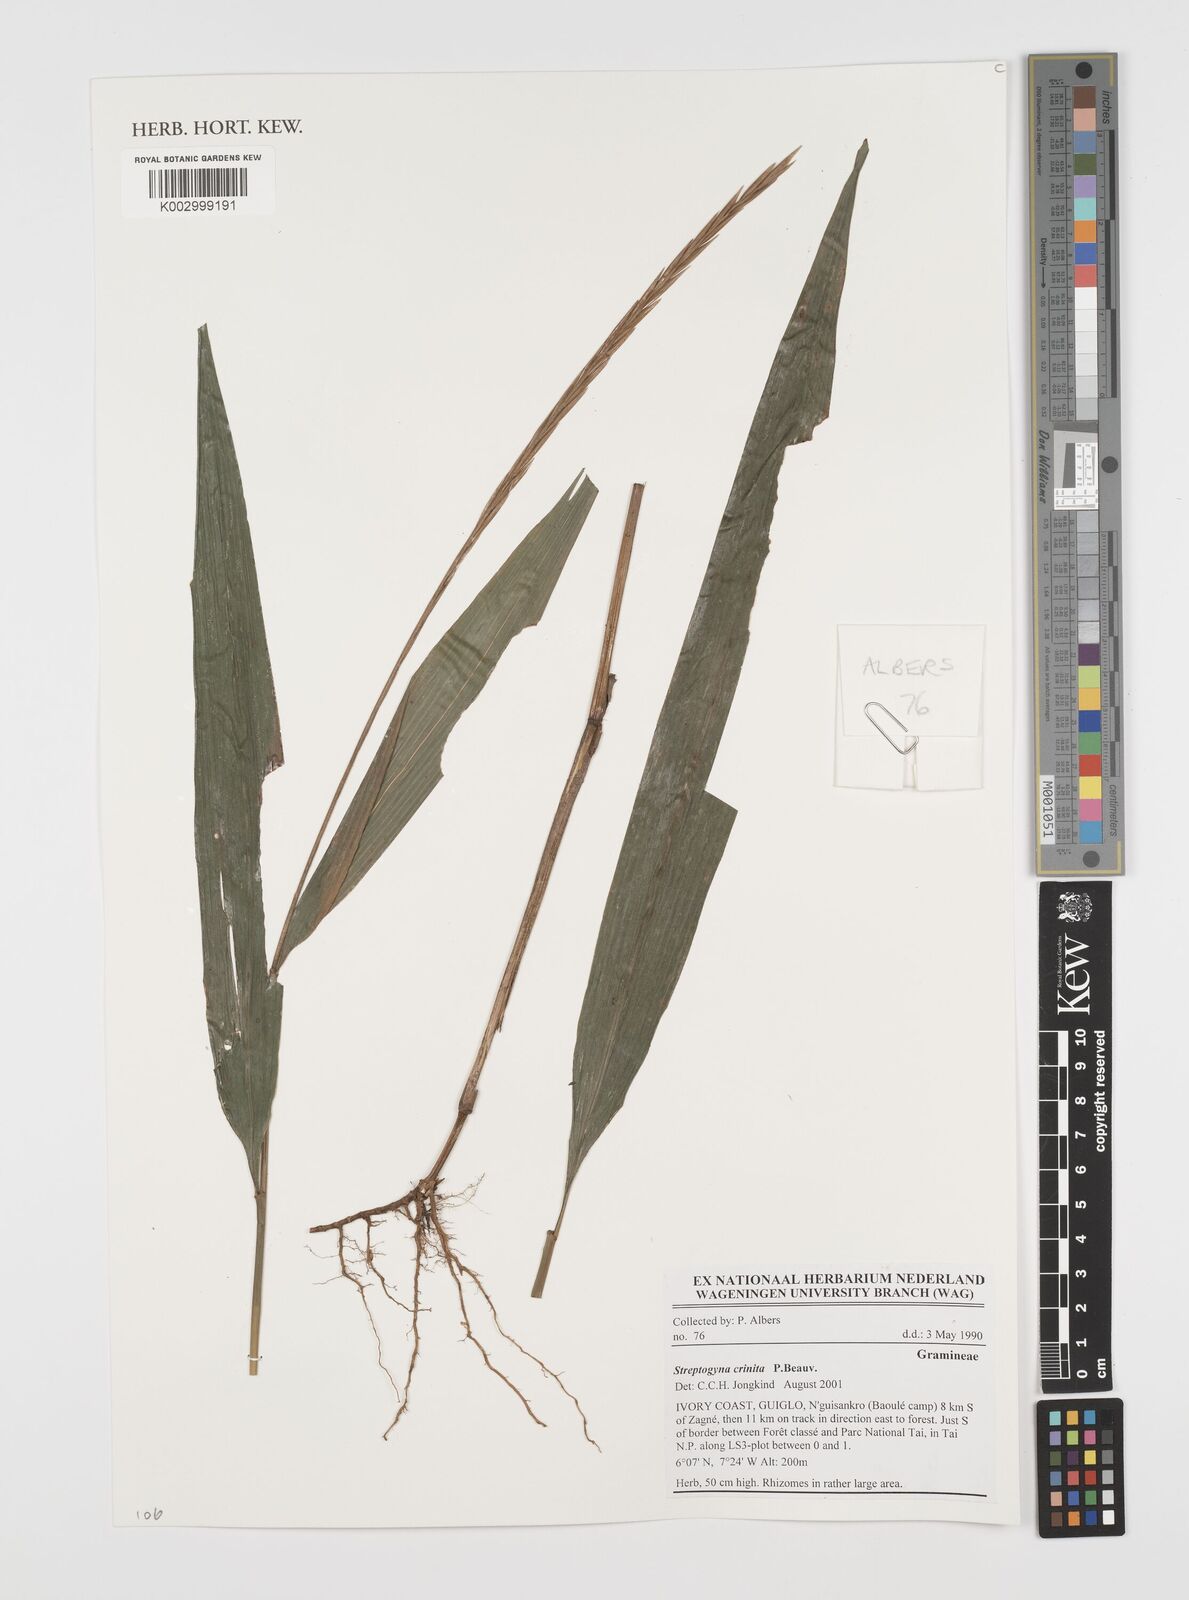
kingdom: Plantae
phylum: Tracheophyta
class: Liliopsida
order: Poales
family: Poaceae
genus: Streptogyna
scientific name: Streptogyna crinita
